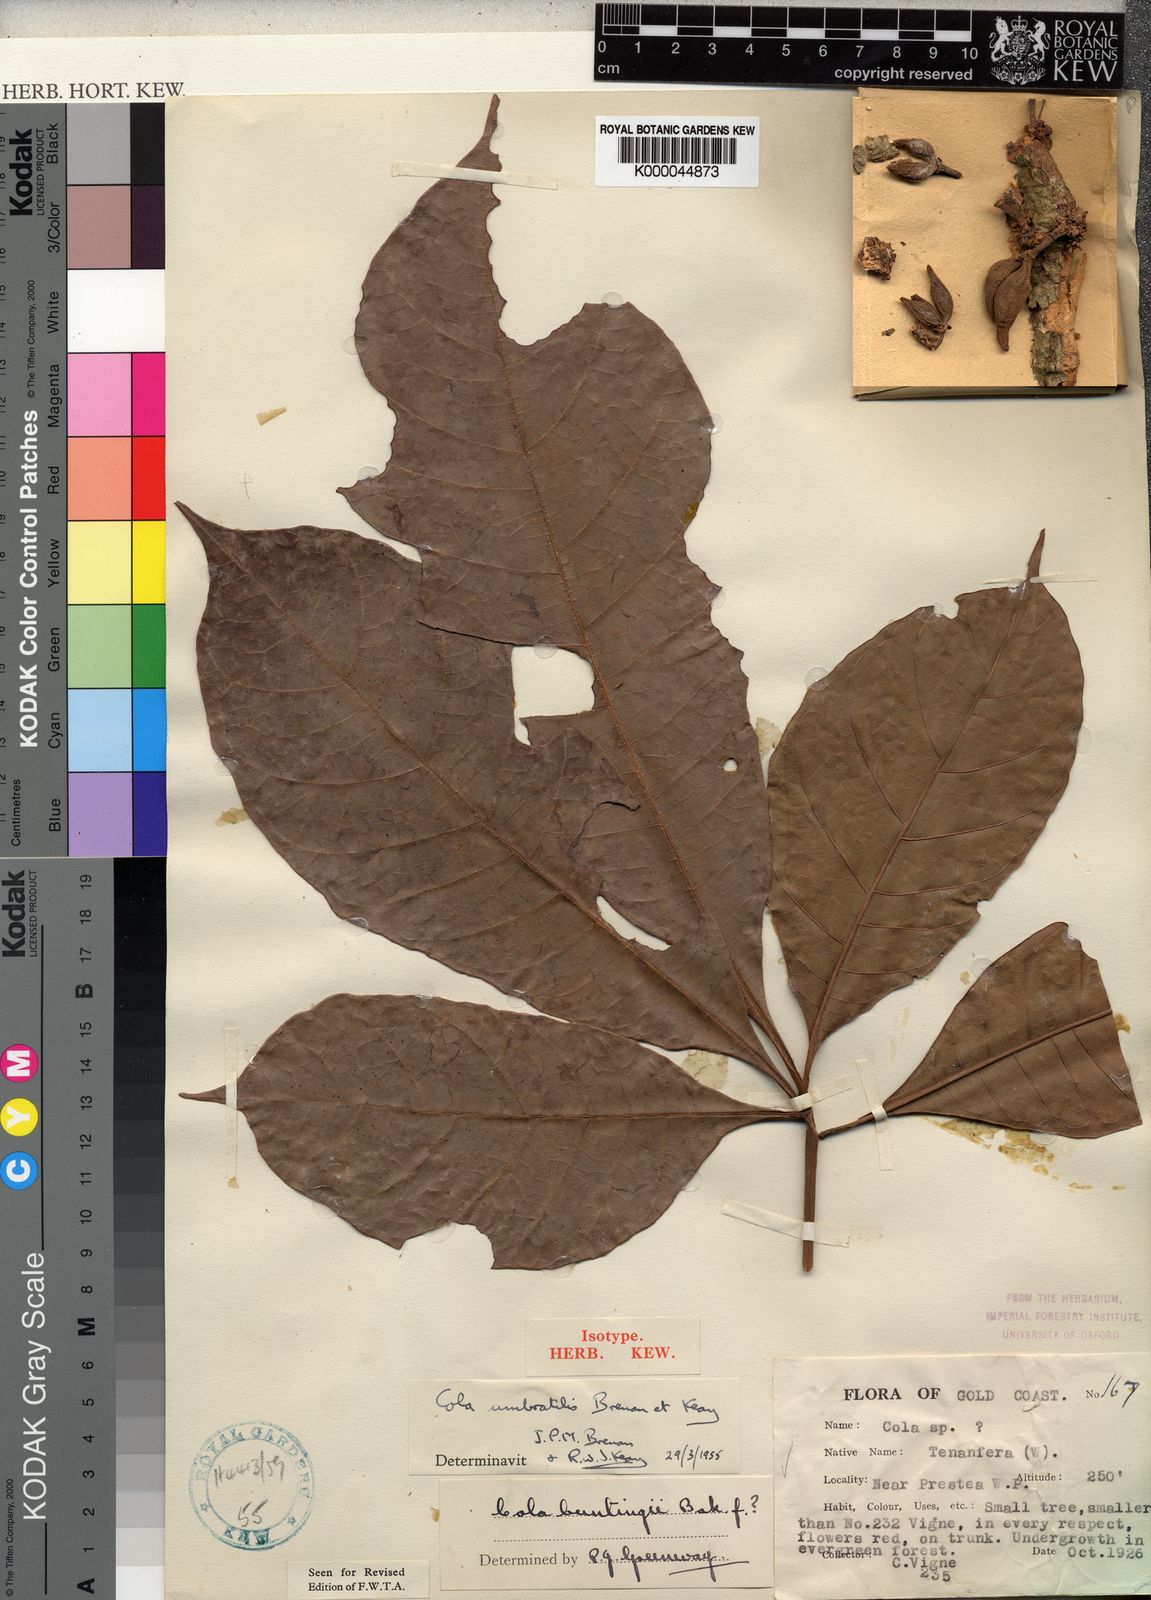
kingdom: Plantae
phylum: Tracheophyta
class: Magnoliopsida
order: Malvales
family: Malvaceae
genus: Cola
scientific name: Cola umbratilis
